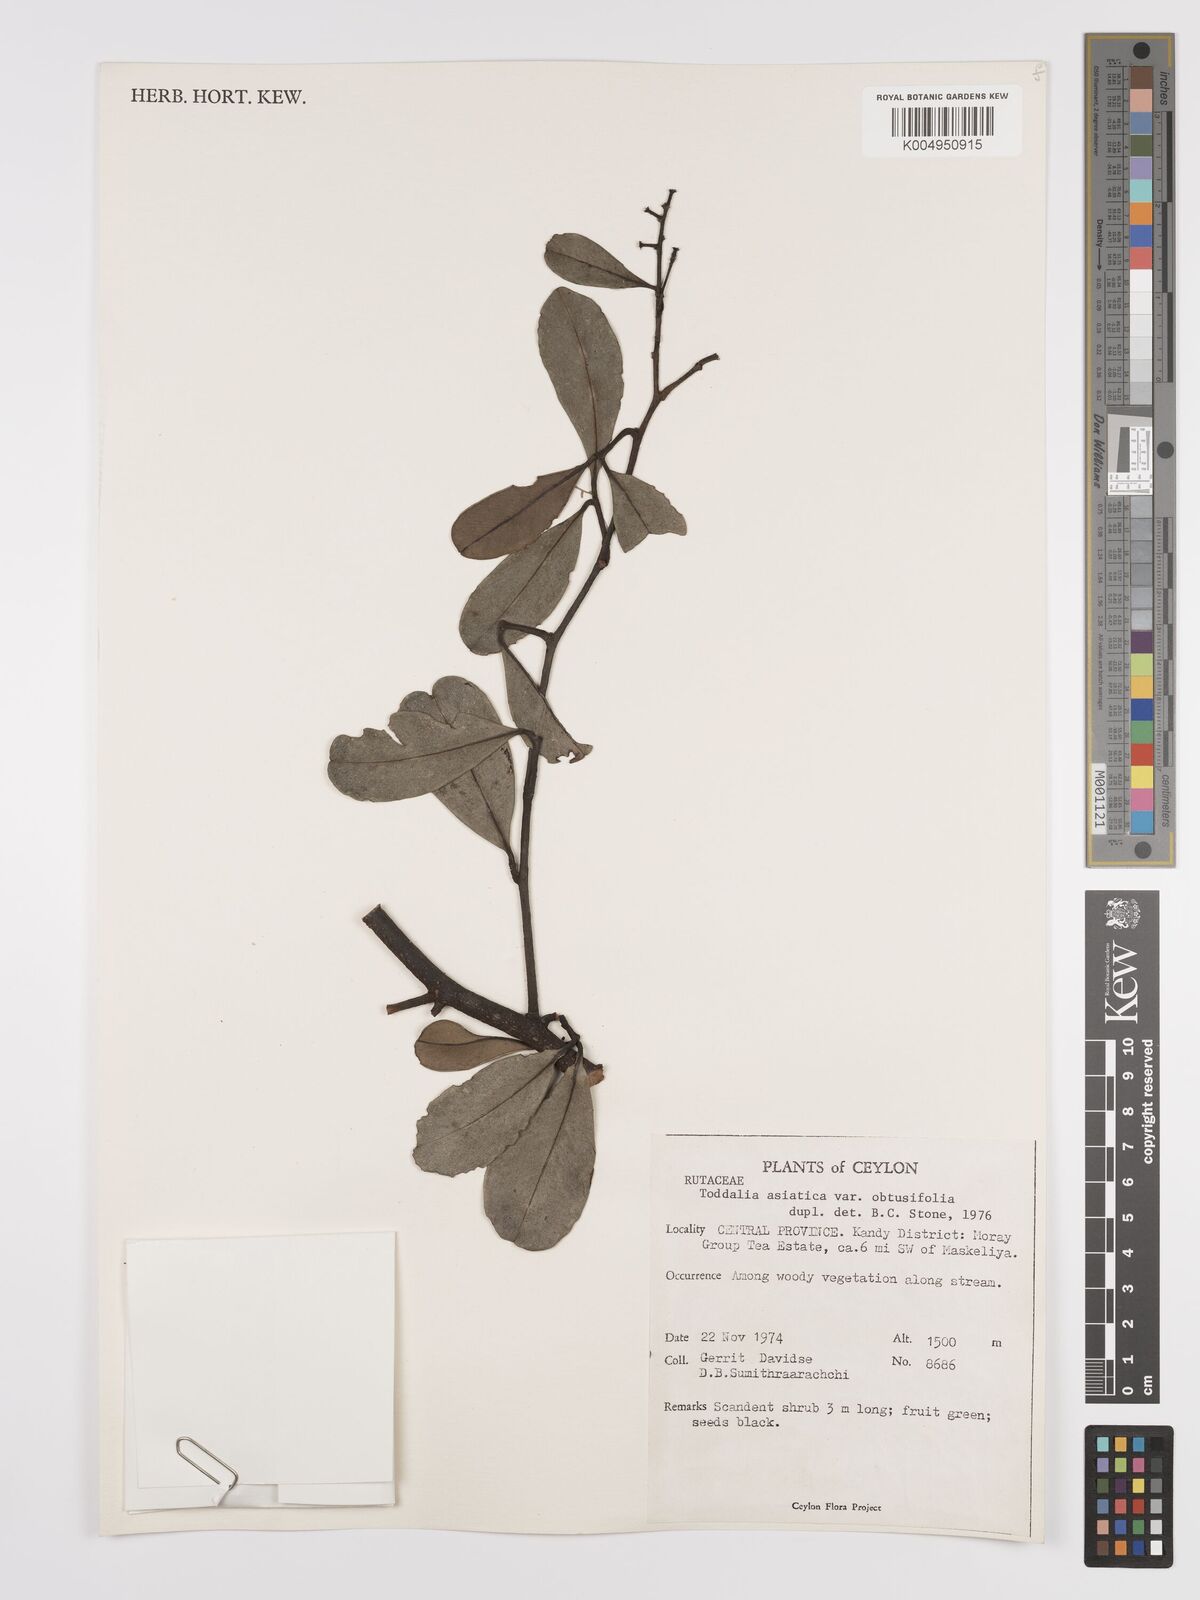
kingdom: Plantae
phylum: Tracheophyta
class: Magnoliopsida
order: Sapindales
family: Rutaceae
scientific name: Rutaceae
